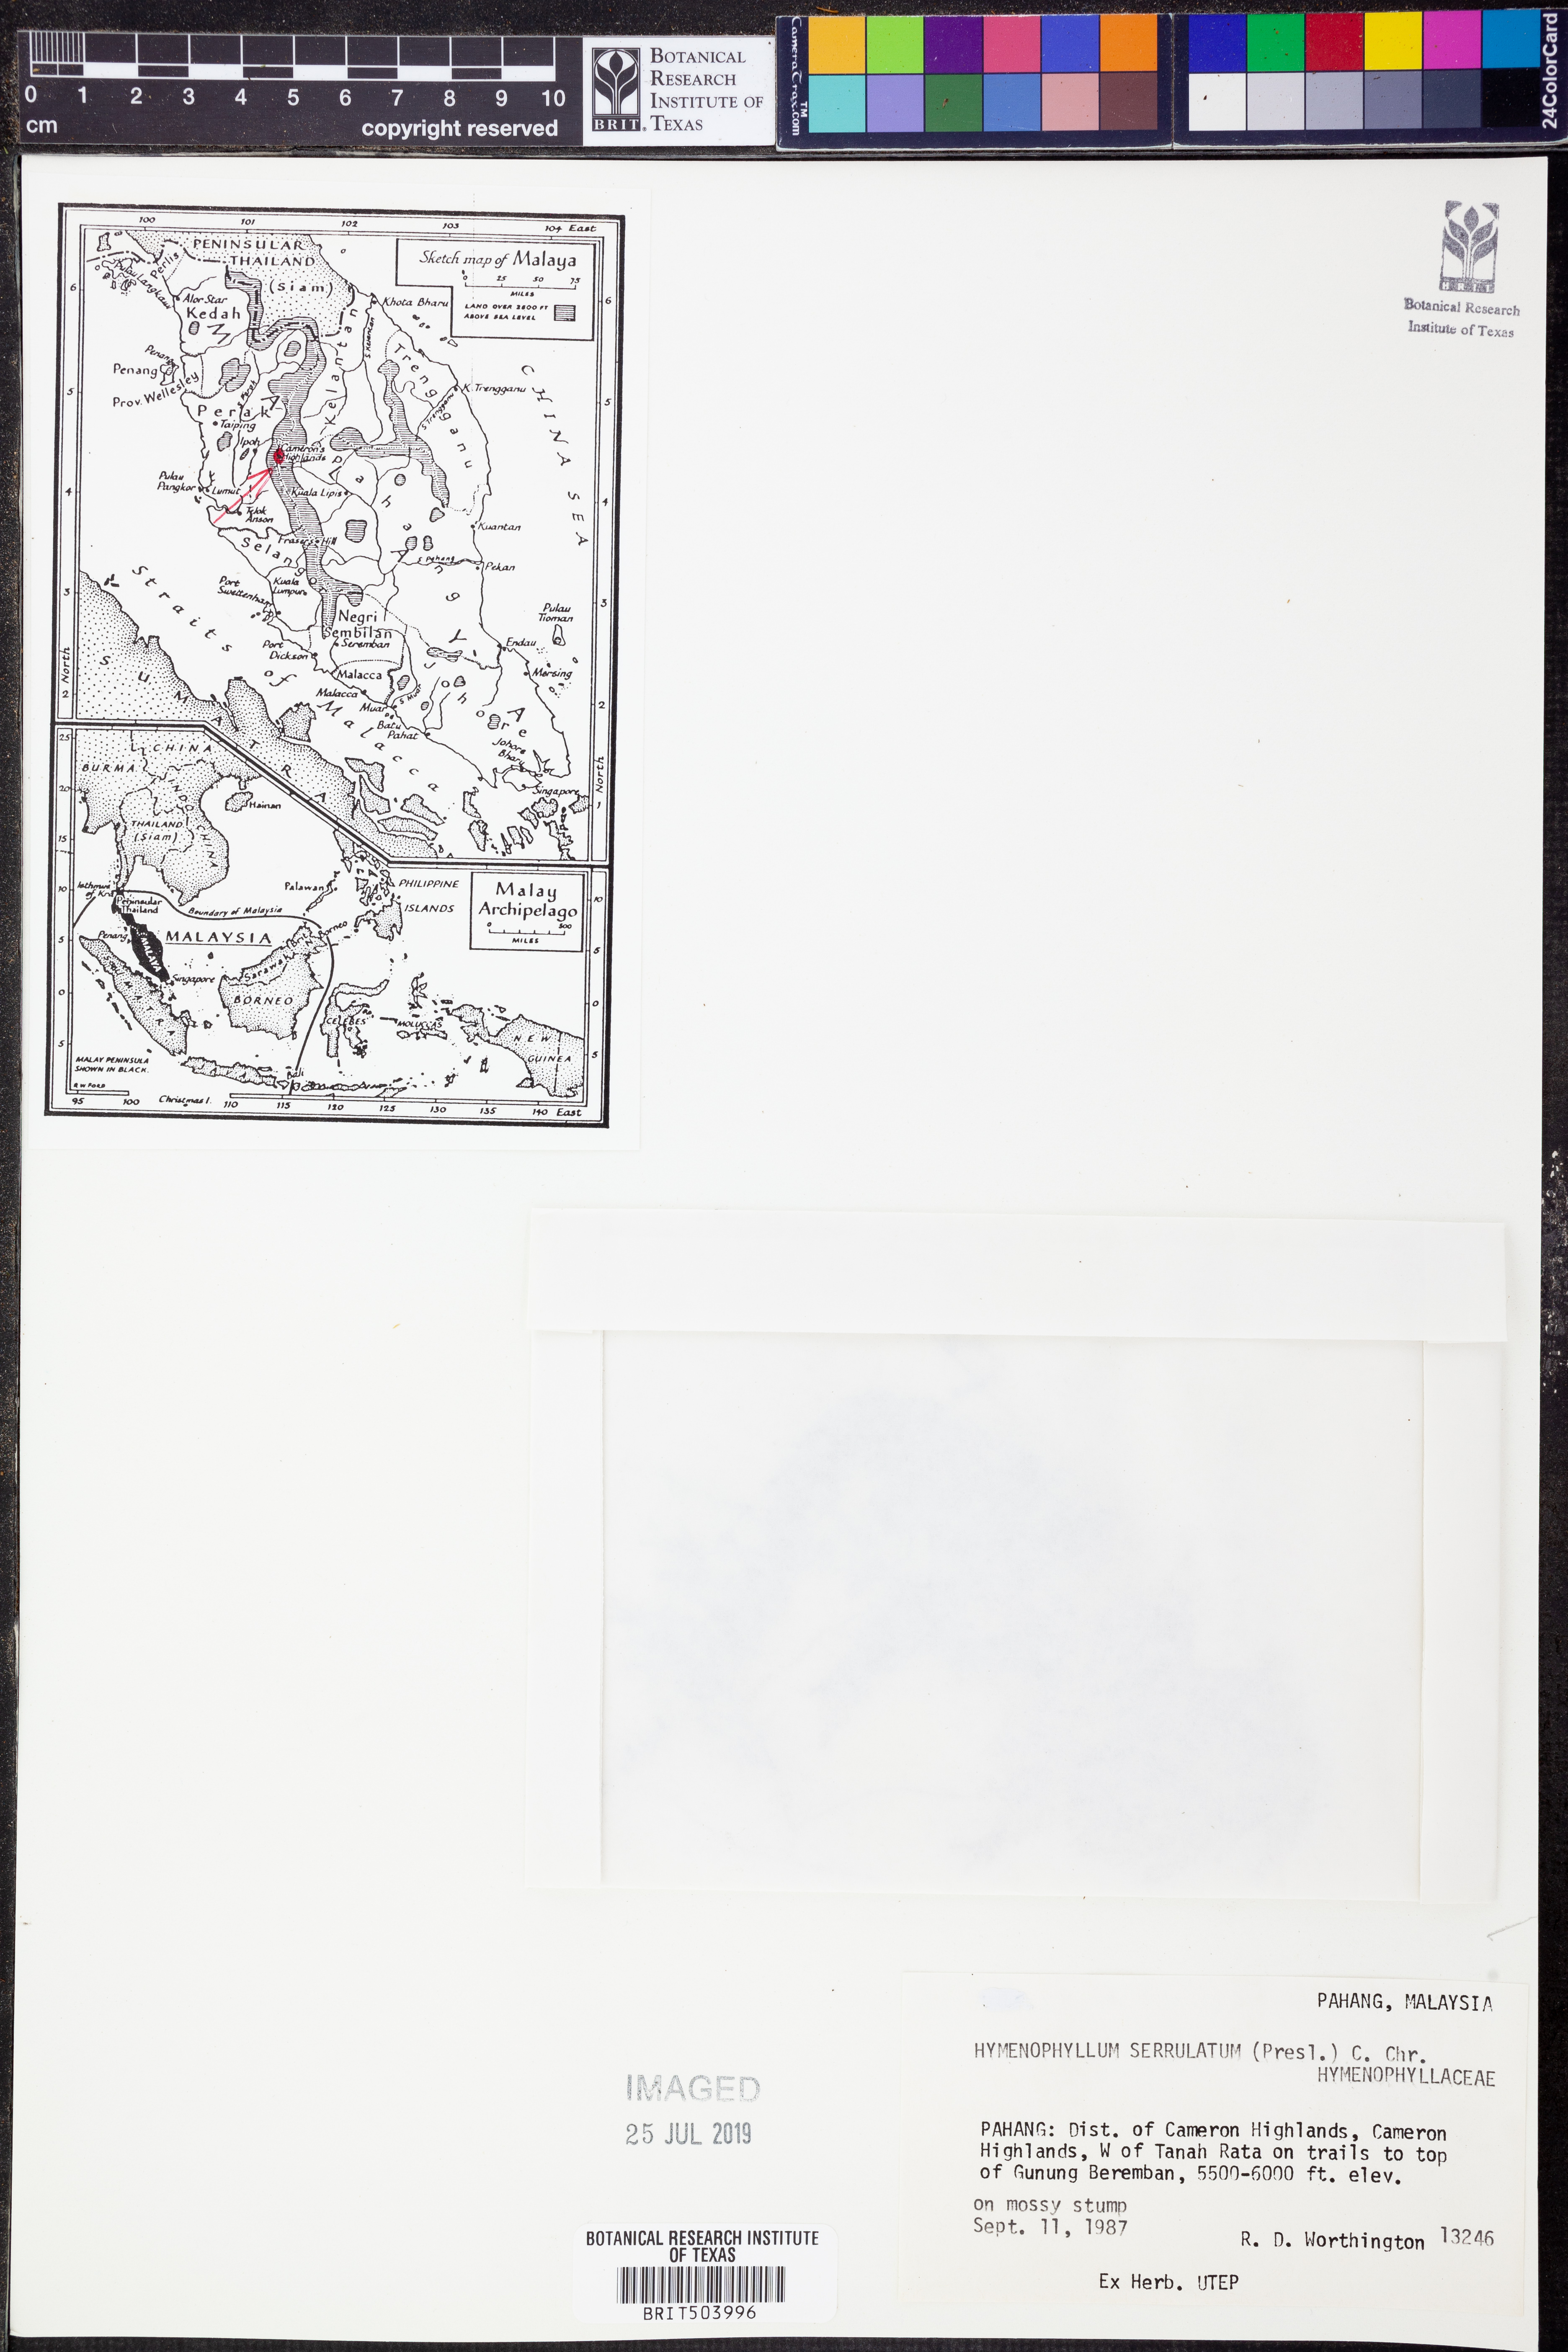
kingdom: Plantae
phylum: Tracheophyta
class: Polypodiopsida
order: Hymenophyllales
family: Hymenophyllaceae
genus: Hymenophyllum
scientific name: Hymenophyllum serrulatum
